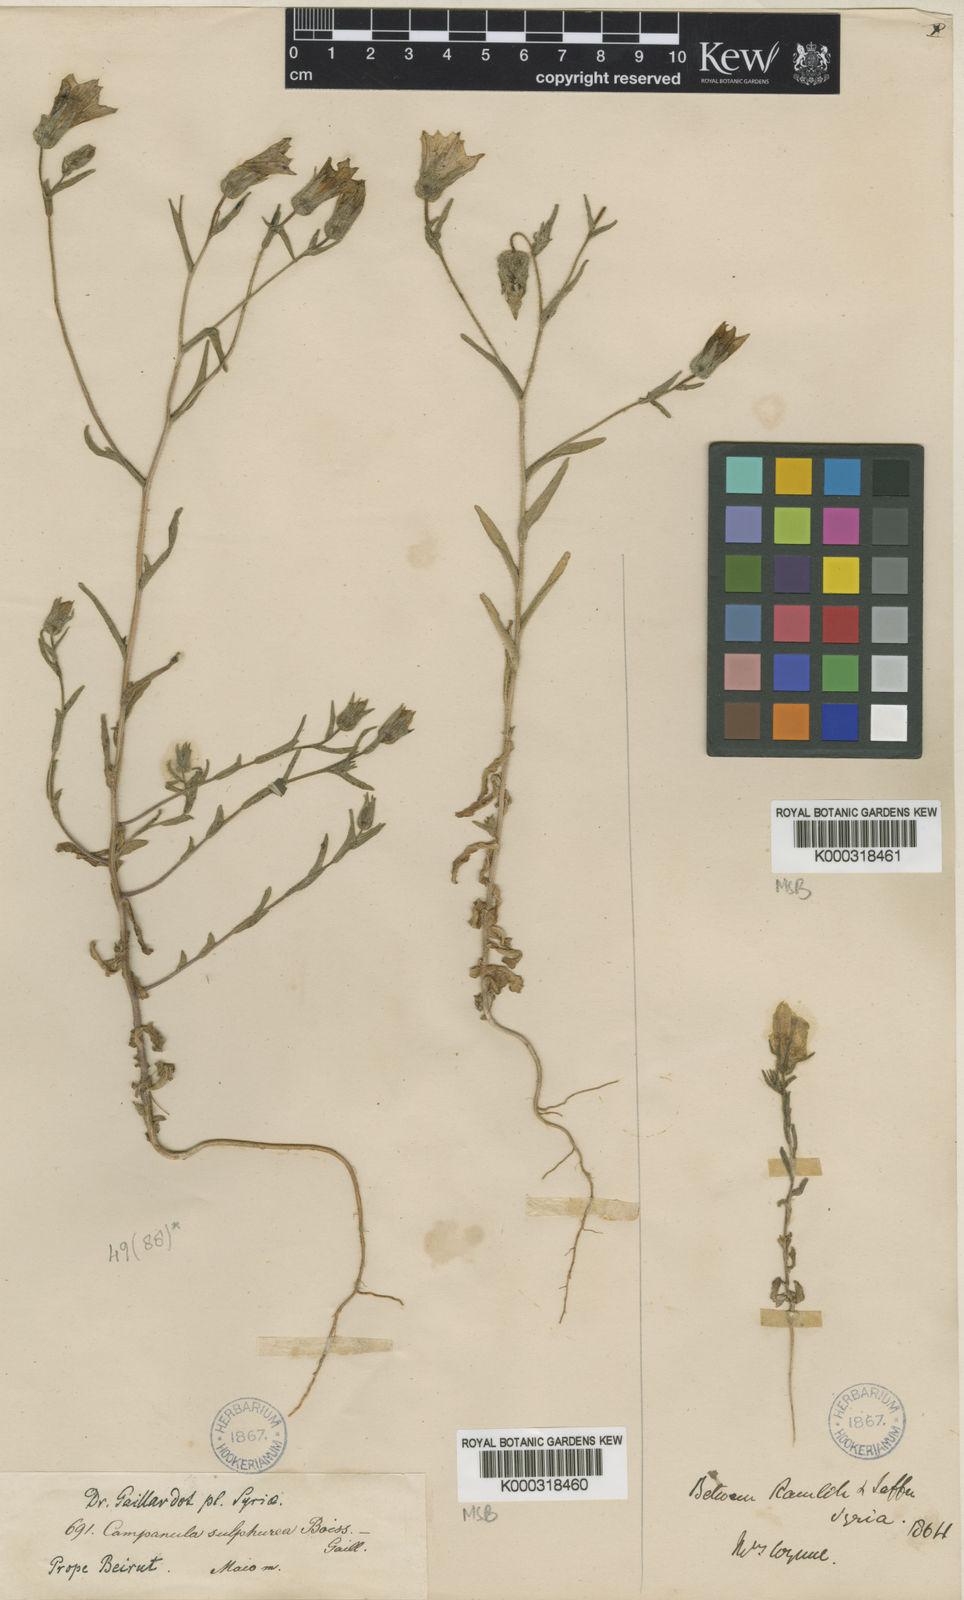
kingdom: Plantae
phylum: Tracheophyta
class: Magnoliopsida
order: Asterales
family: Campanulaceae
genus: Campanula
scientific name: Campanula sulphurea
